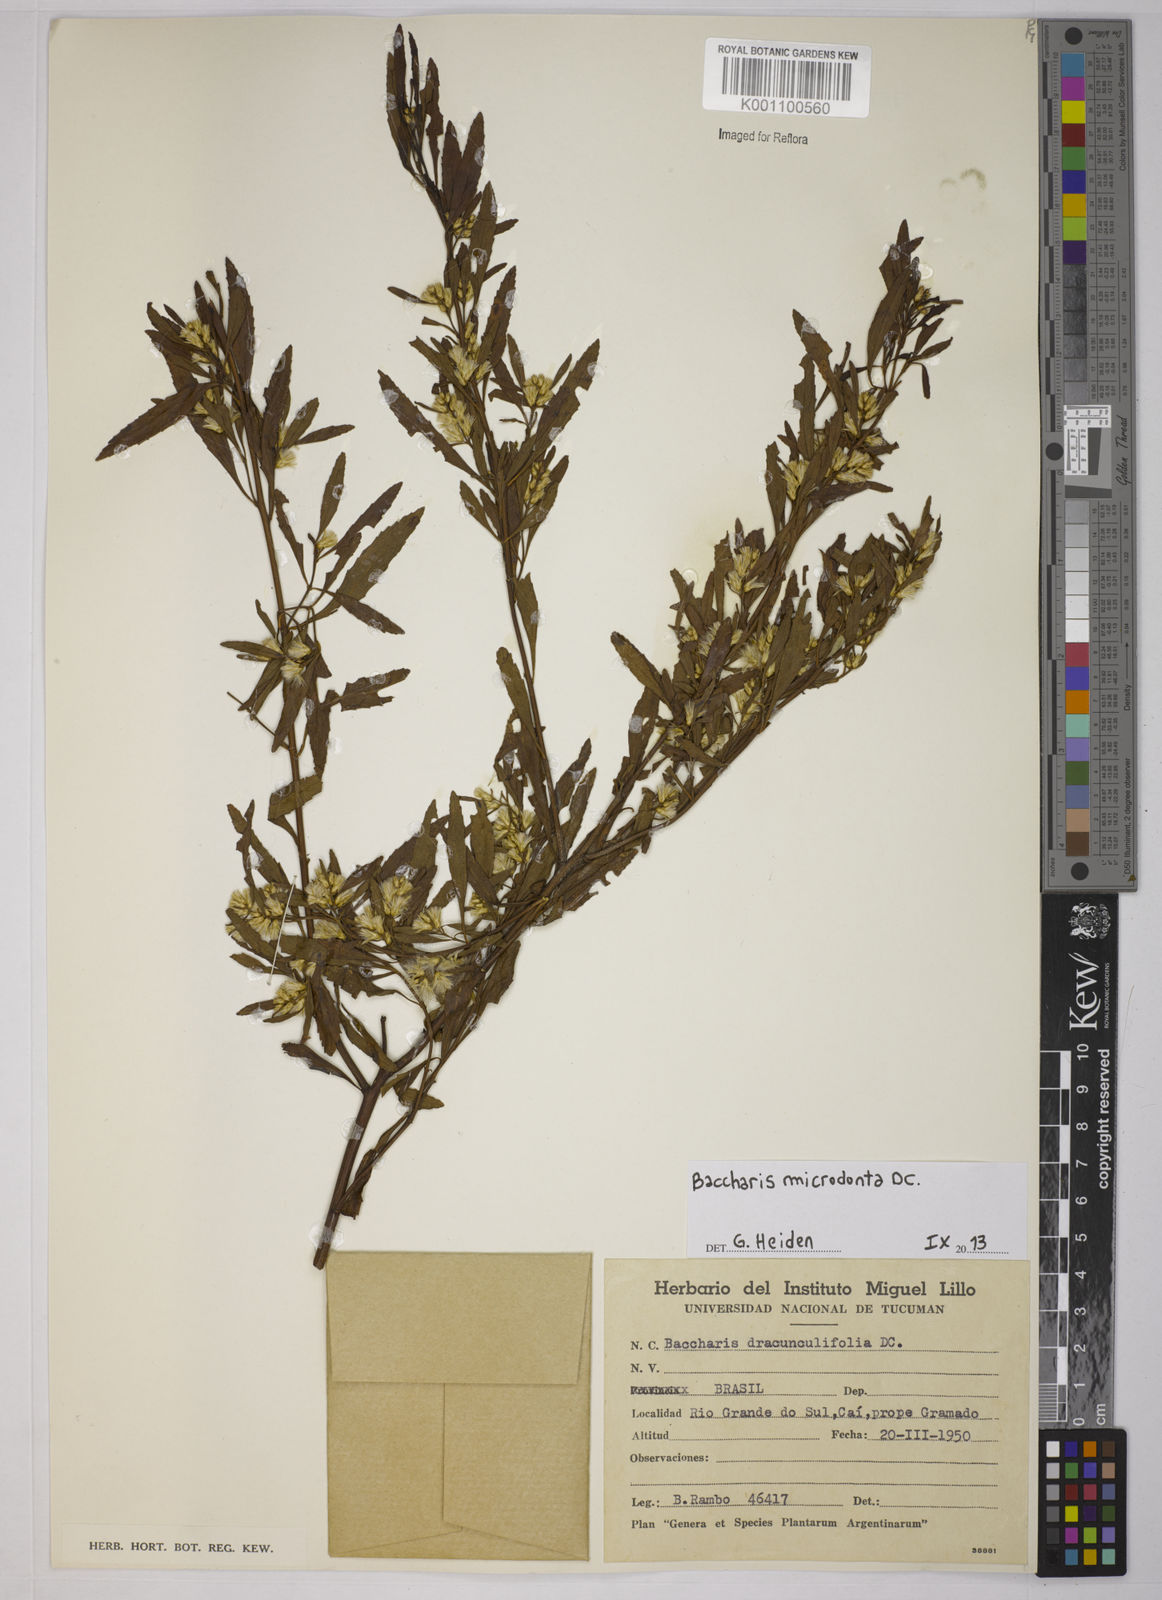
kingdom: Plantae
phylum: Tracheophyta
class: Magnoliopsida
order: Asterales
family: Asteraceae
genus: Baccharis
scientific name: Baccharis microdonta
